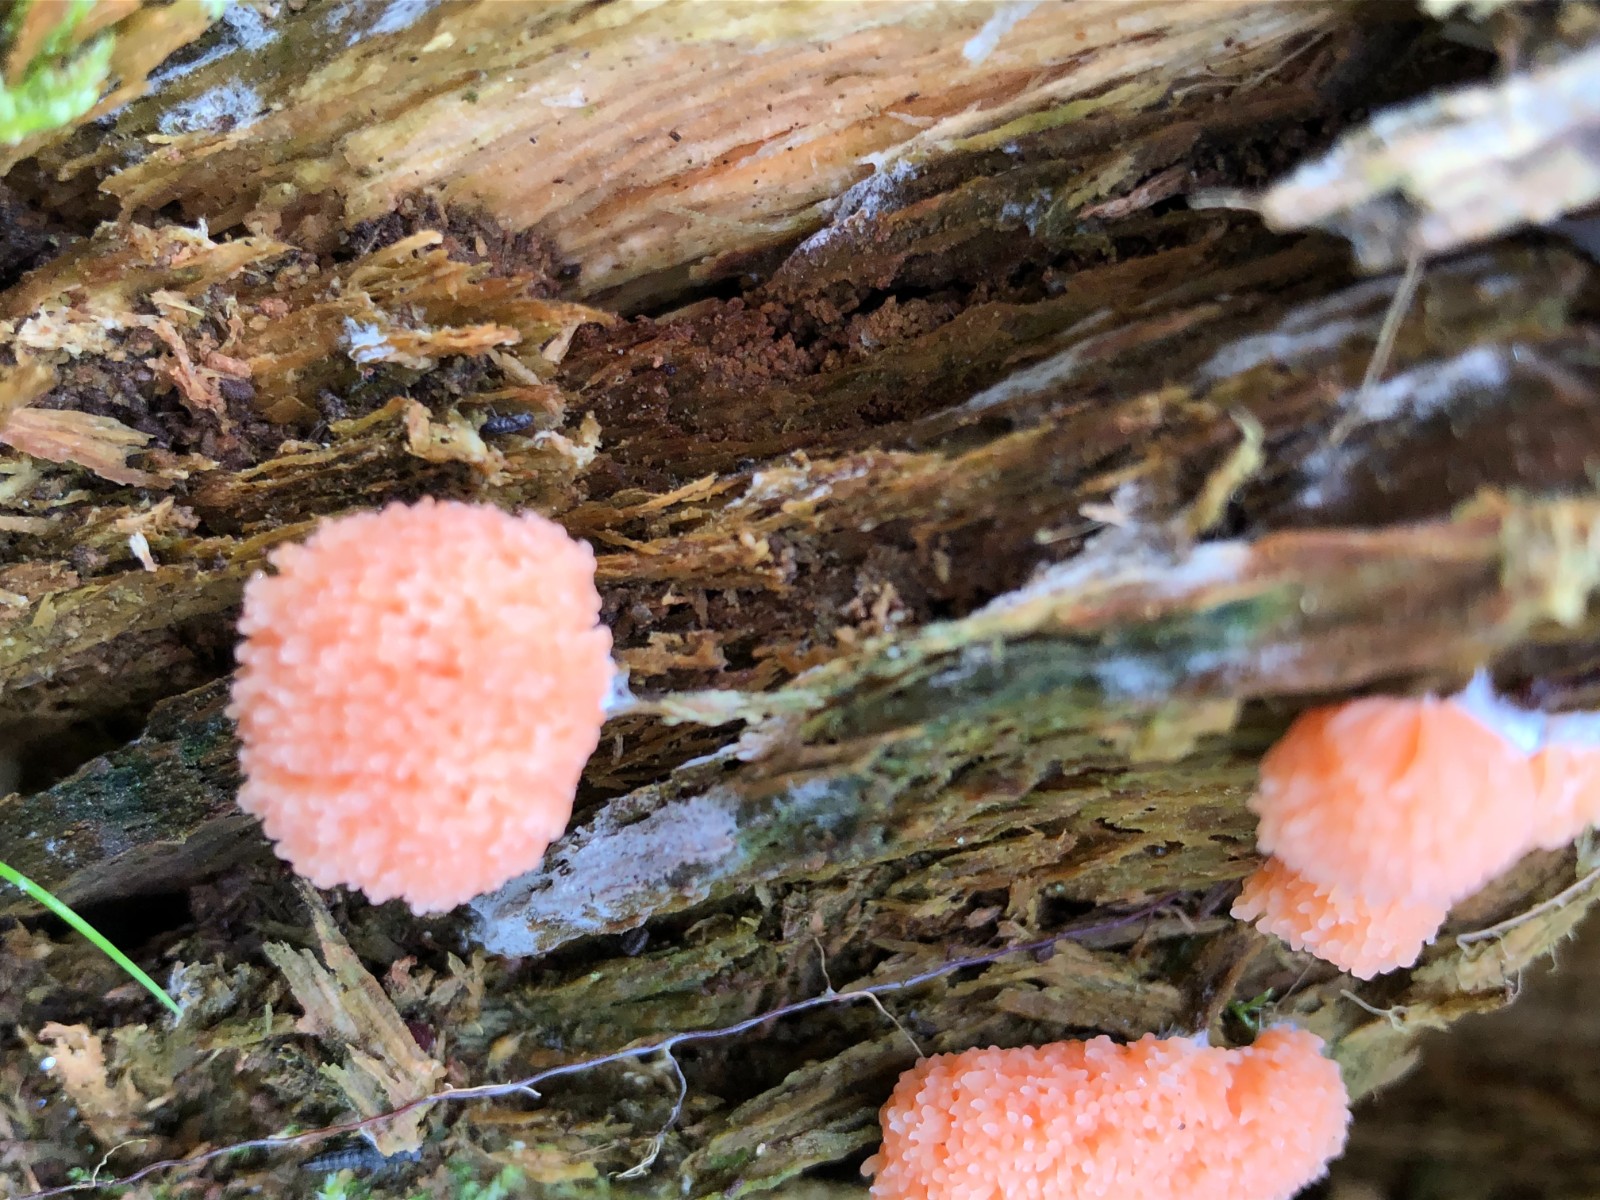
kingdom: Protozoa
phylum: Mycetozoa
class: Myxomycetes
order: Cribrariales
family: Tubiferaceae
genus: Tubifera
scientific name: Tubifera ferruginosa
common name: kanel-støvrør
